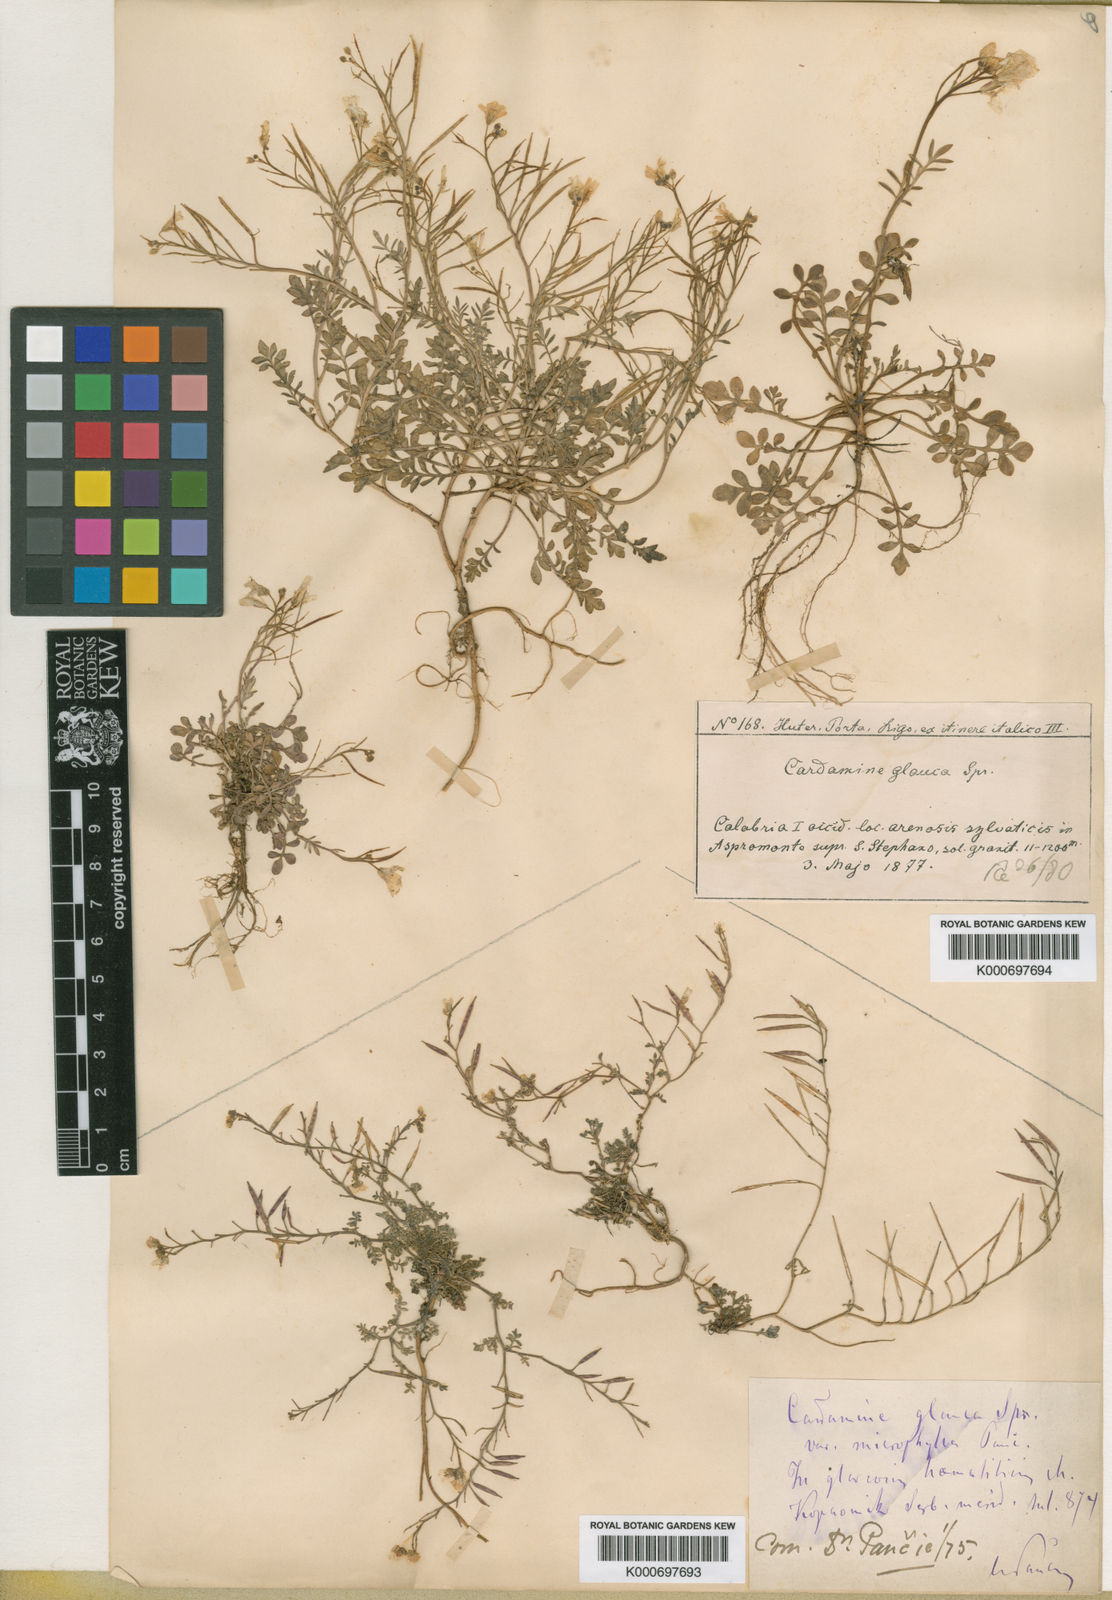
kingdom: Plantae
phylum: Tracheophyta
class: Magnoliopsida
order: Brassicales
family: Brassicaceae
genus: Cardamine
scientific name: Cardamine glauca
